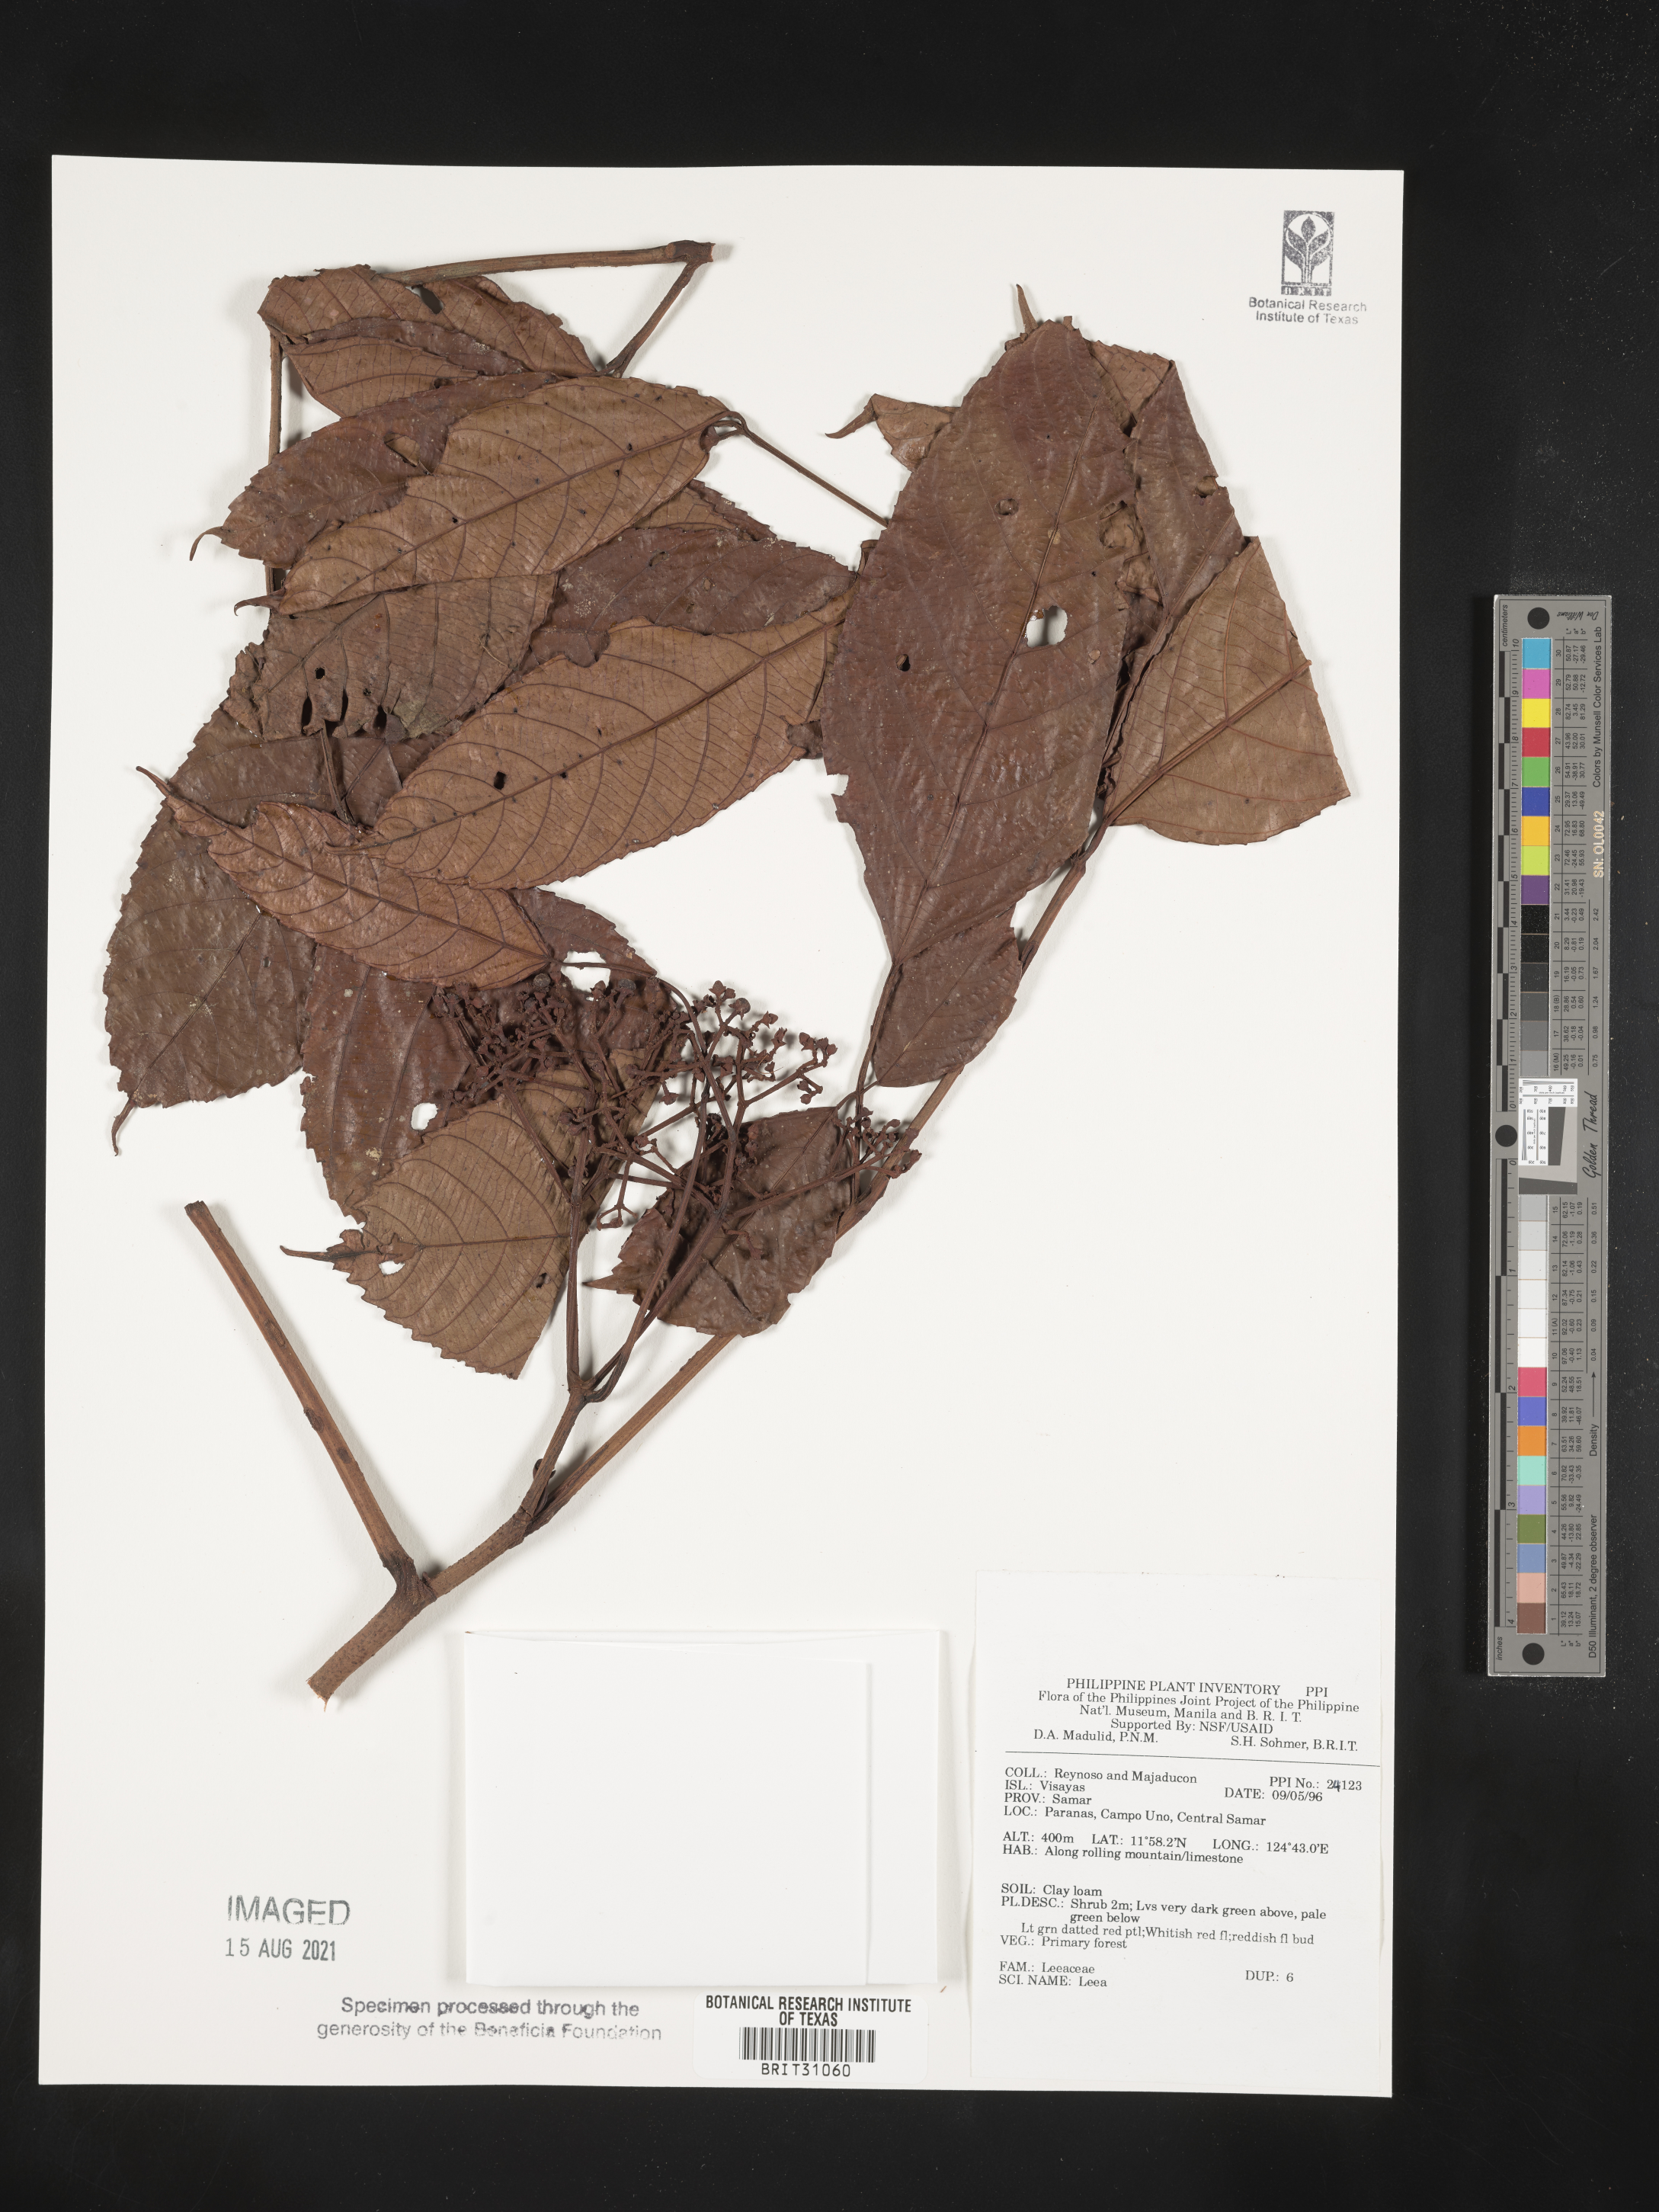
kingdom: Plantae
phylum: Tracheophyta
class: Magnoliopsida
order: Vitales
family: Vitaceae
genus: Leea
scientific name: Leea
